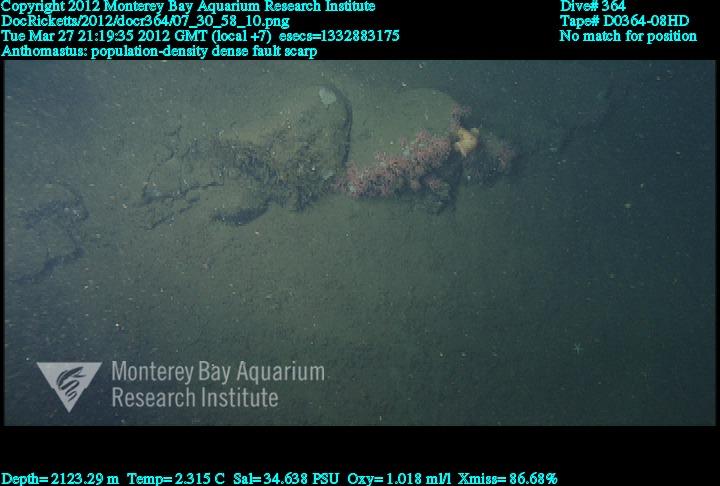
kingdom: Animalia
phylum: Cnidaria
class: Anthozoa
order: Scleralcyonacea
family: Coralliidae
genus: Heteropolypus
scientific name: Heteropolypus
